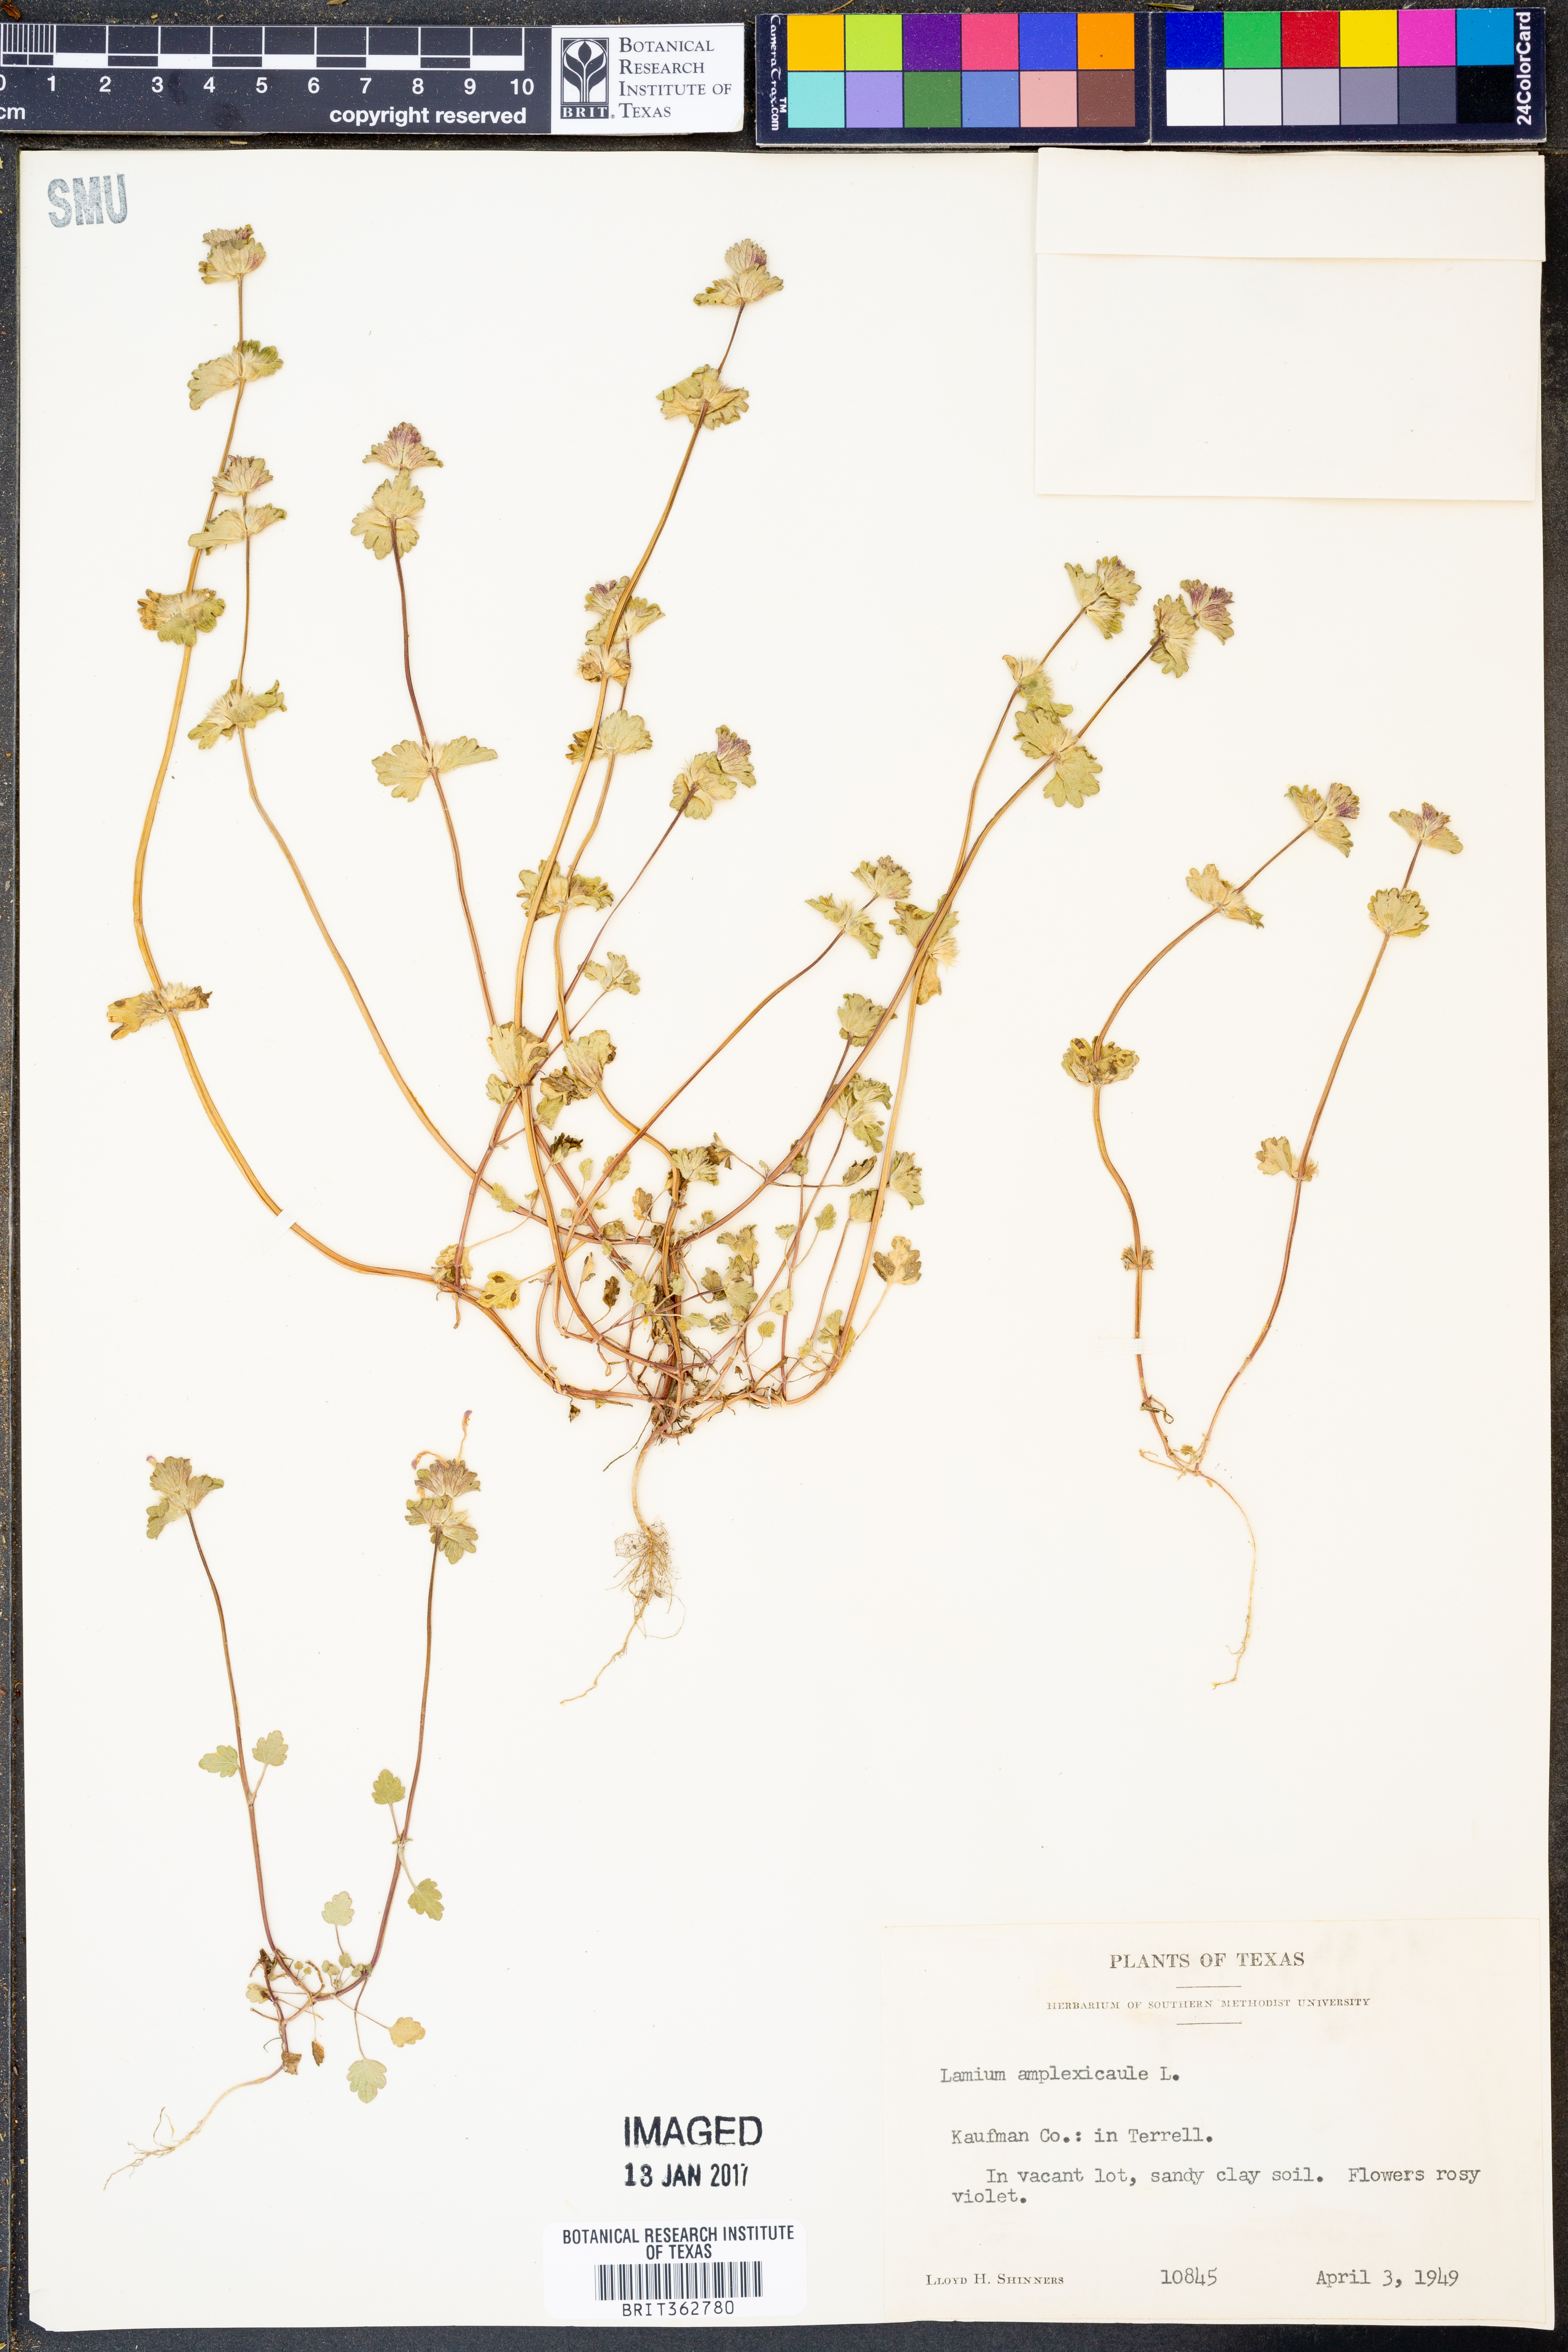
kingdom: Plantae
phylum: Tracheophyta
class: Magnoliopsida
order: Lamiales
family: Lamiaceae
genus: Lamium
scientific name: Lamium amplexicaule
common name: Henbit dead-nettle
